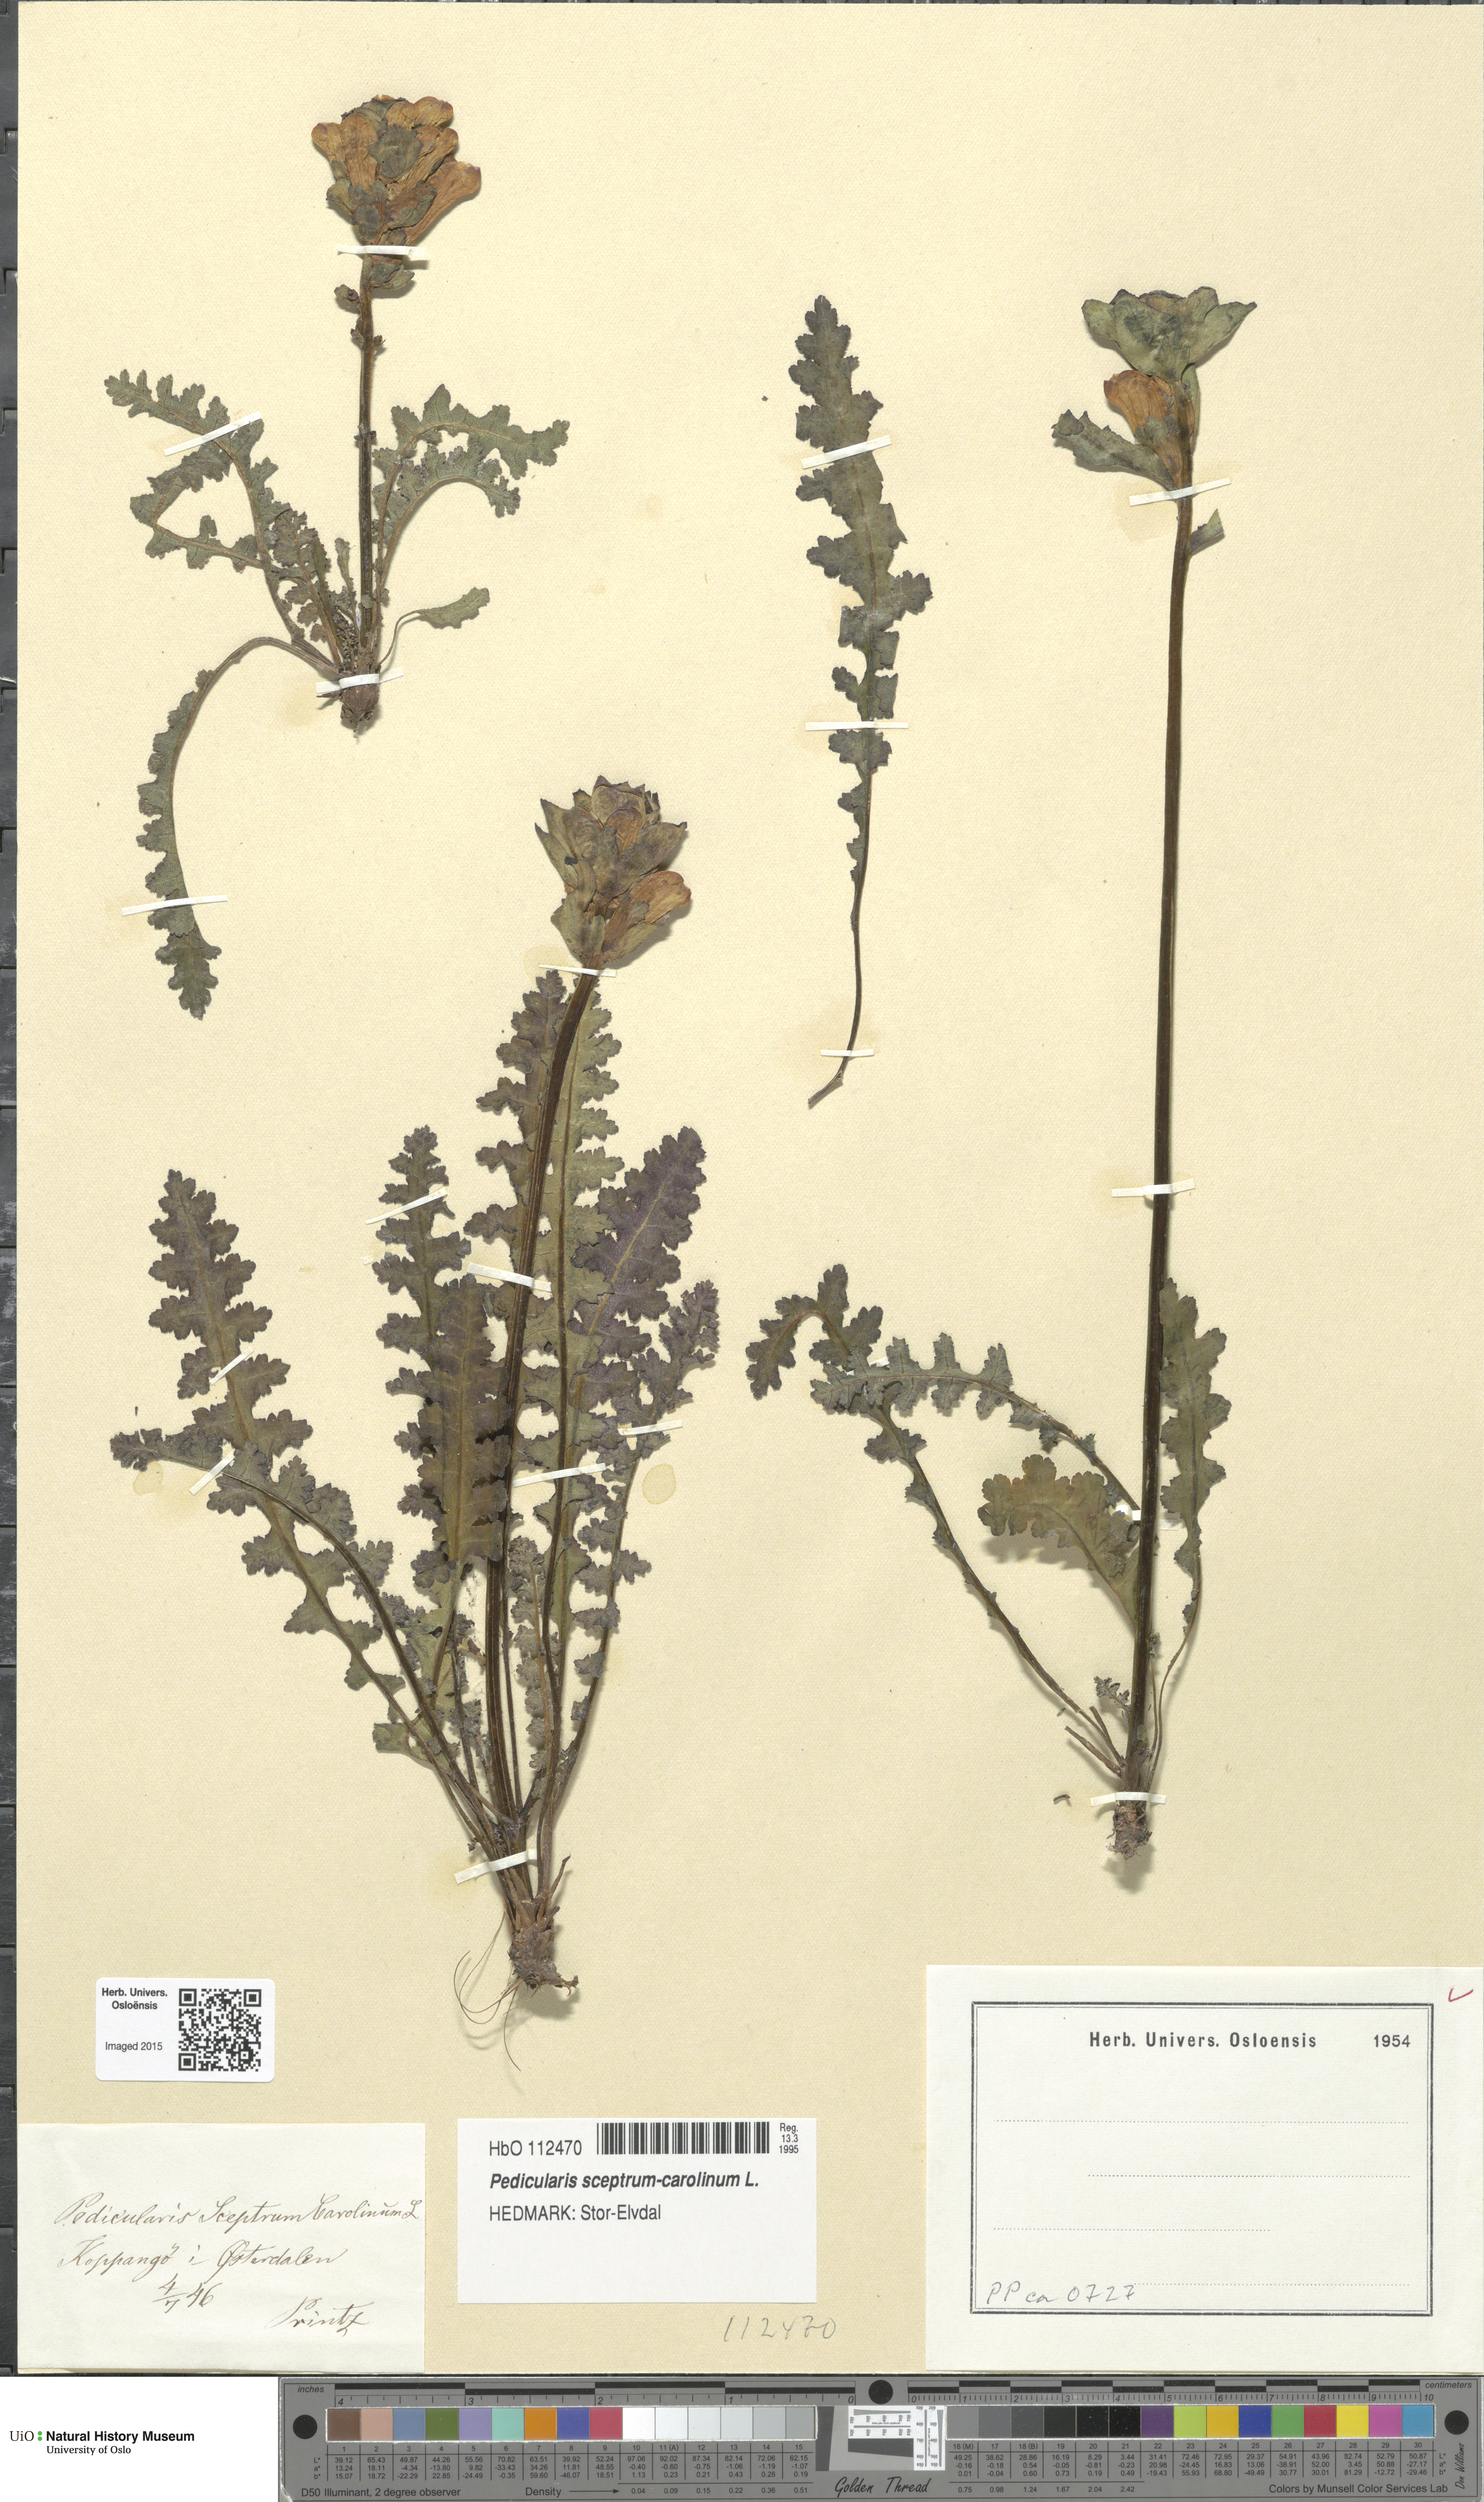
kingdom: Plantae
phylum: Tracheophyta
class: Magnoliopsida
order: Lamiales
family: Orobanchaceae
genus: Pedicularis
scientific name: Pedicularis sceptrum-carolinum
